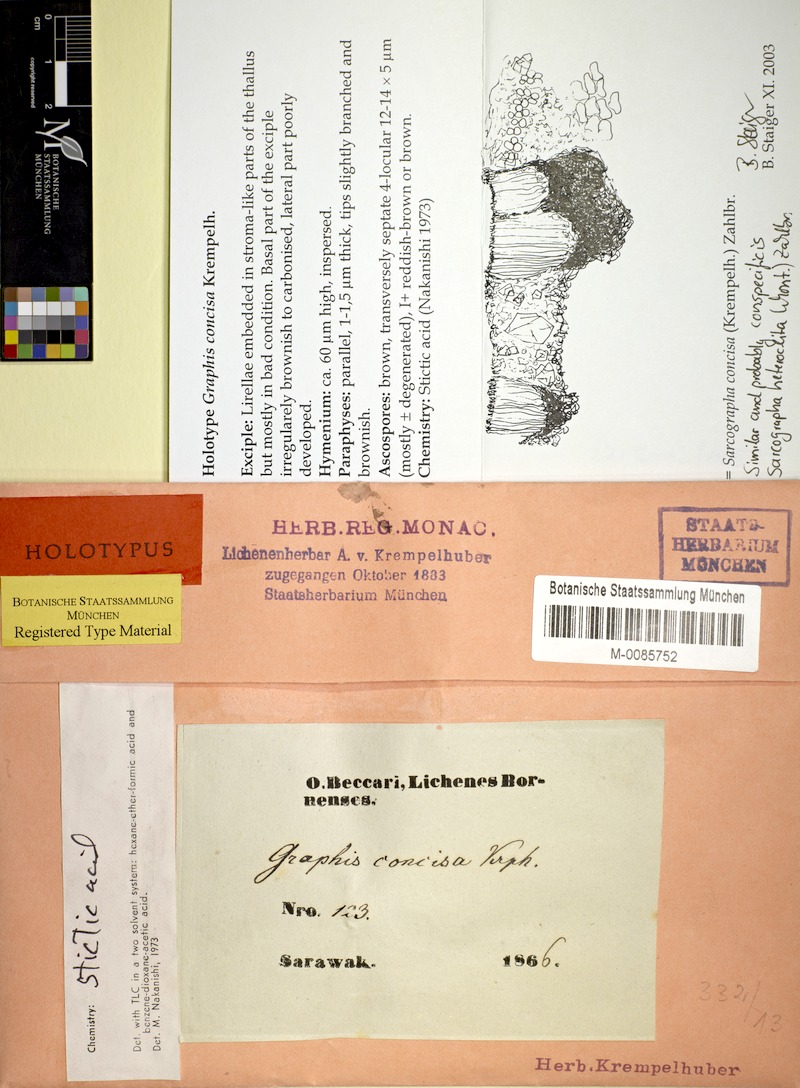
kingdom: Fungi
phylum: Ascomycota
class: Lecanoromycetes
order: Ostropales
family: Graphidaceae
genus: Sarcographa
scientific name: Sarcographa
